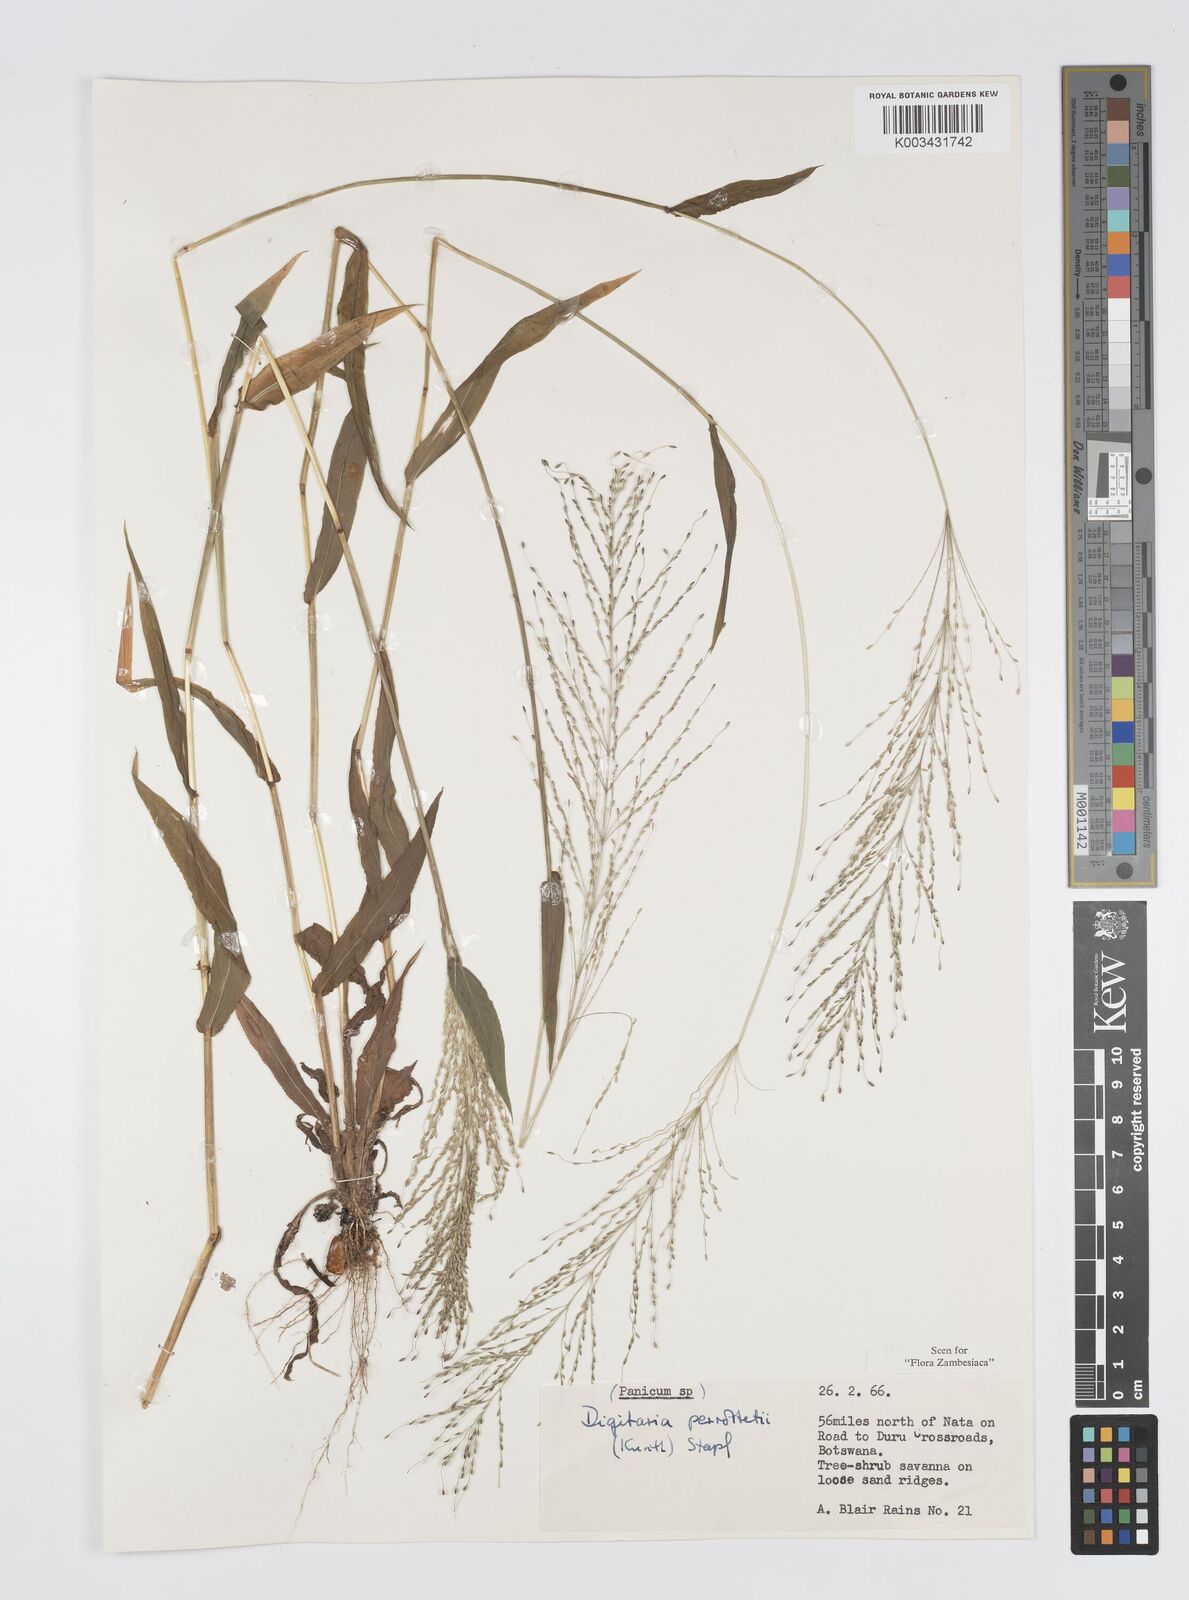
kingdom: Plantae
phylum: Tracheophyta
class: Liliopsida
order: Poales
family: Poaceae
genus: Digitaria
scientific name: Digitaria perrottetii
